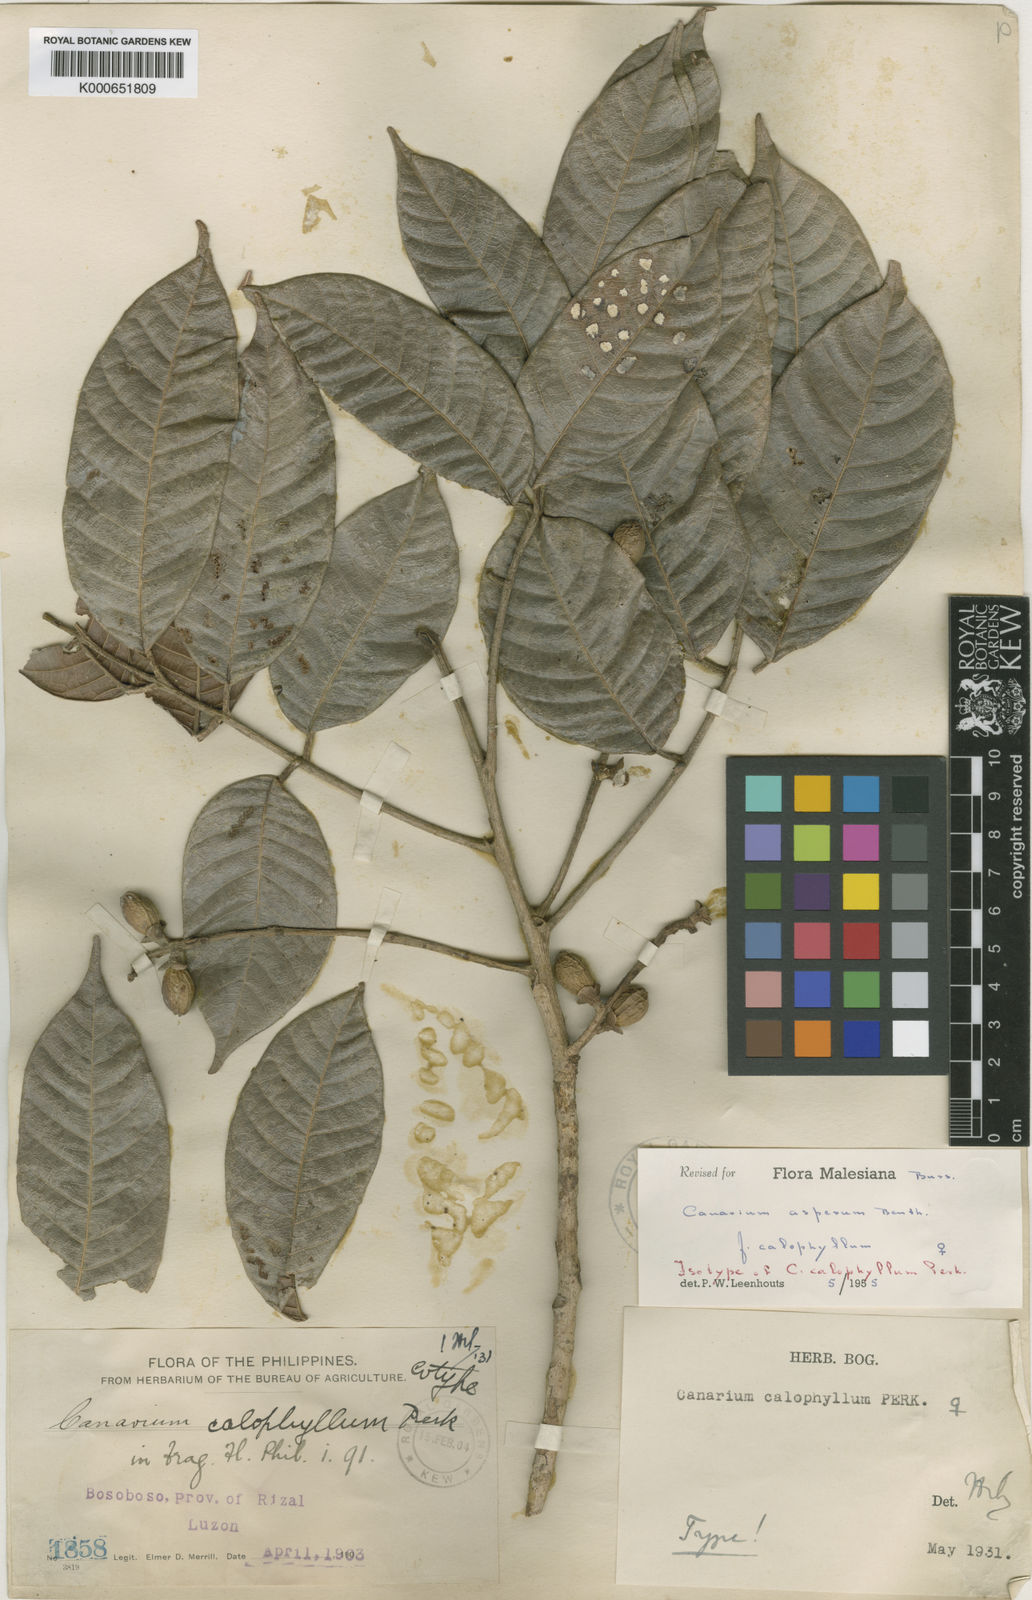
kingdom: Plantae
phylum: Tracheophyta
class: Magnoliopsida
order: Sapindales
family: Burseraceae
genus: Canarium
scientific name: Canarium asperum
